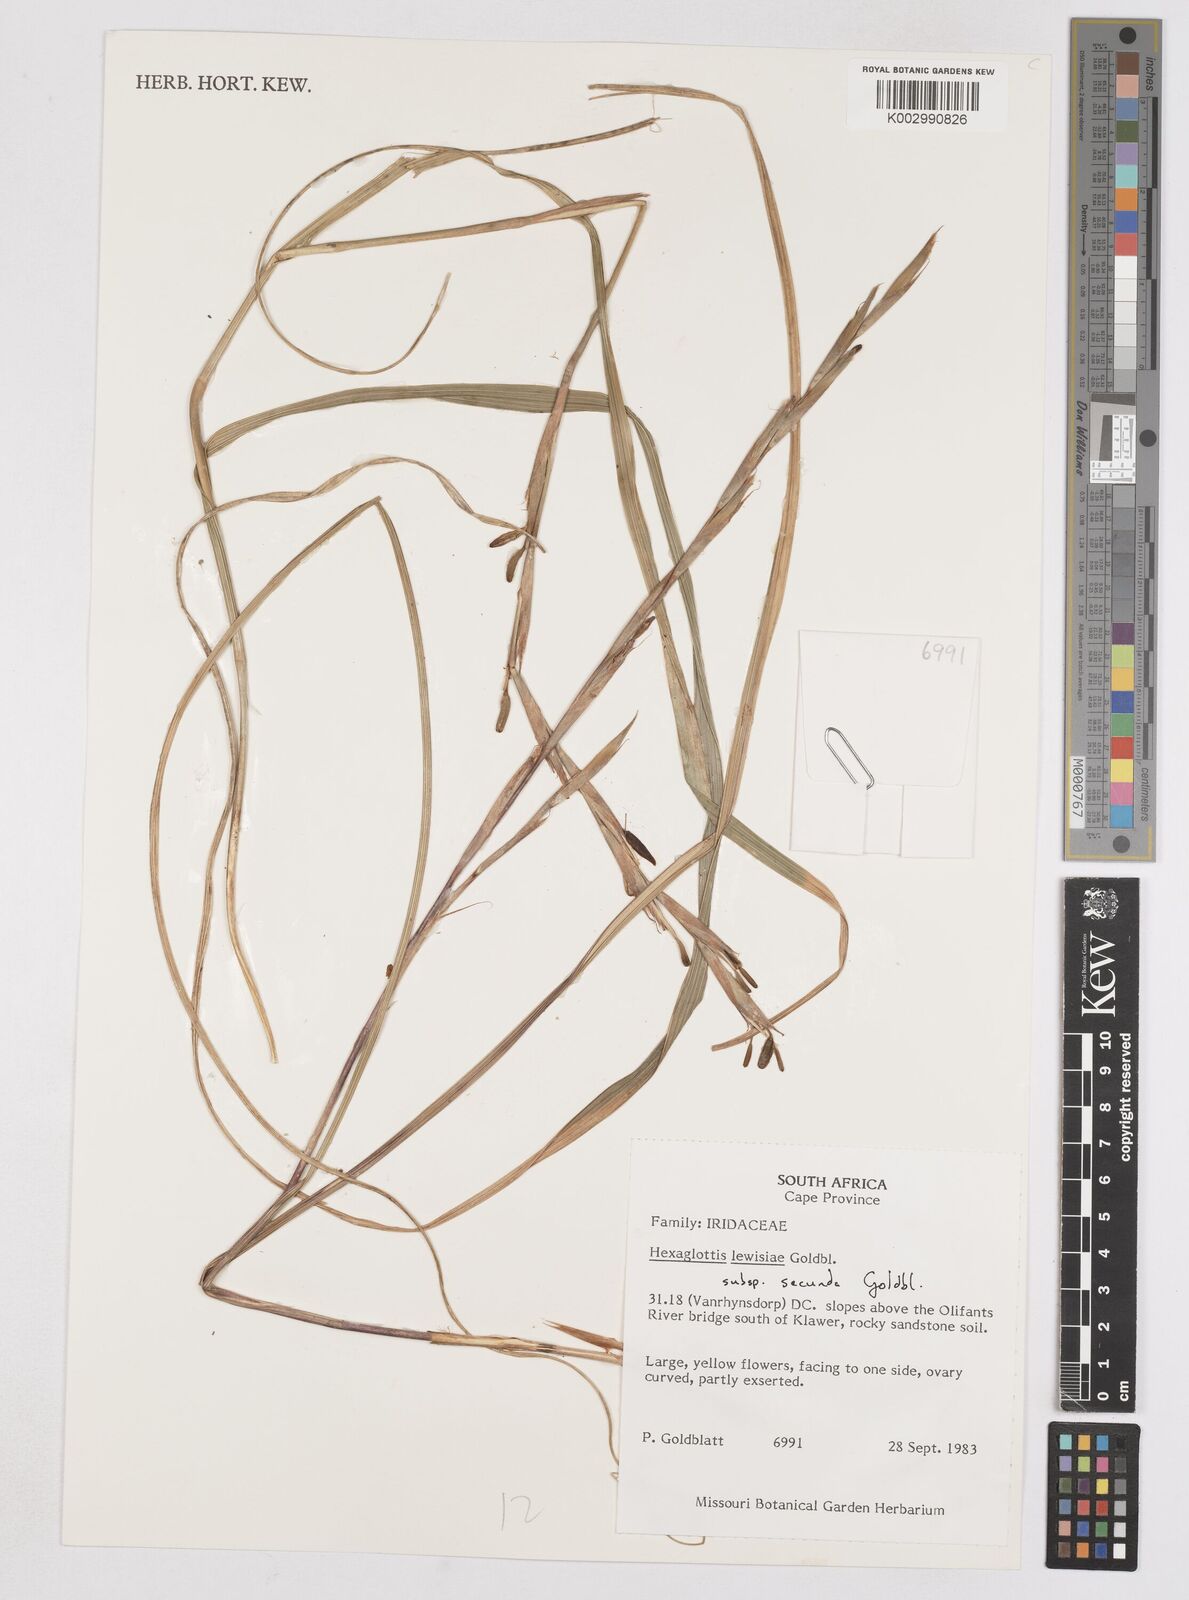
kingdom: Plantae
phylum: Tracheophyta
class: Liliopsida
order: Asparagales
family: Iridaceae
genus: Moraea
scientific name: Moraea lewisiae
